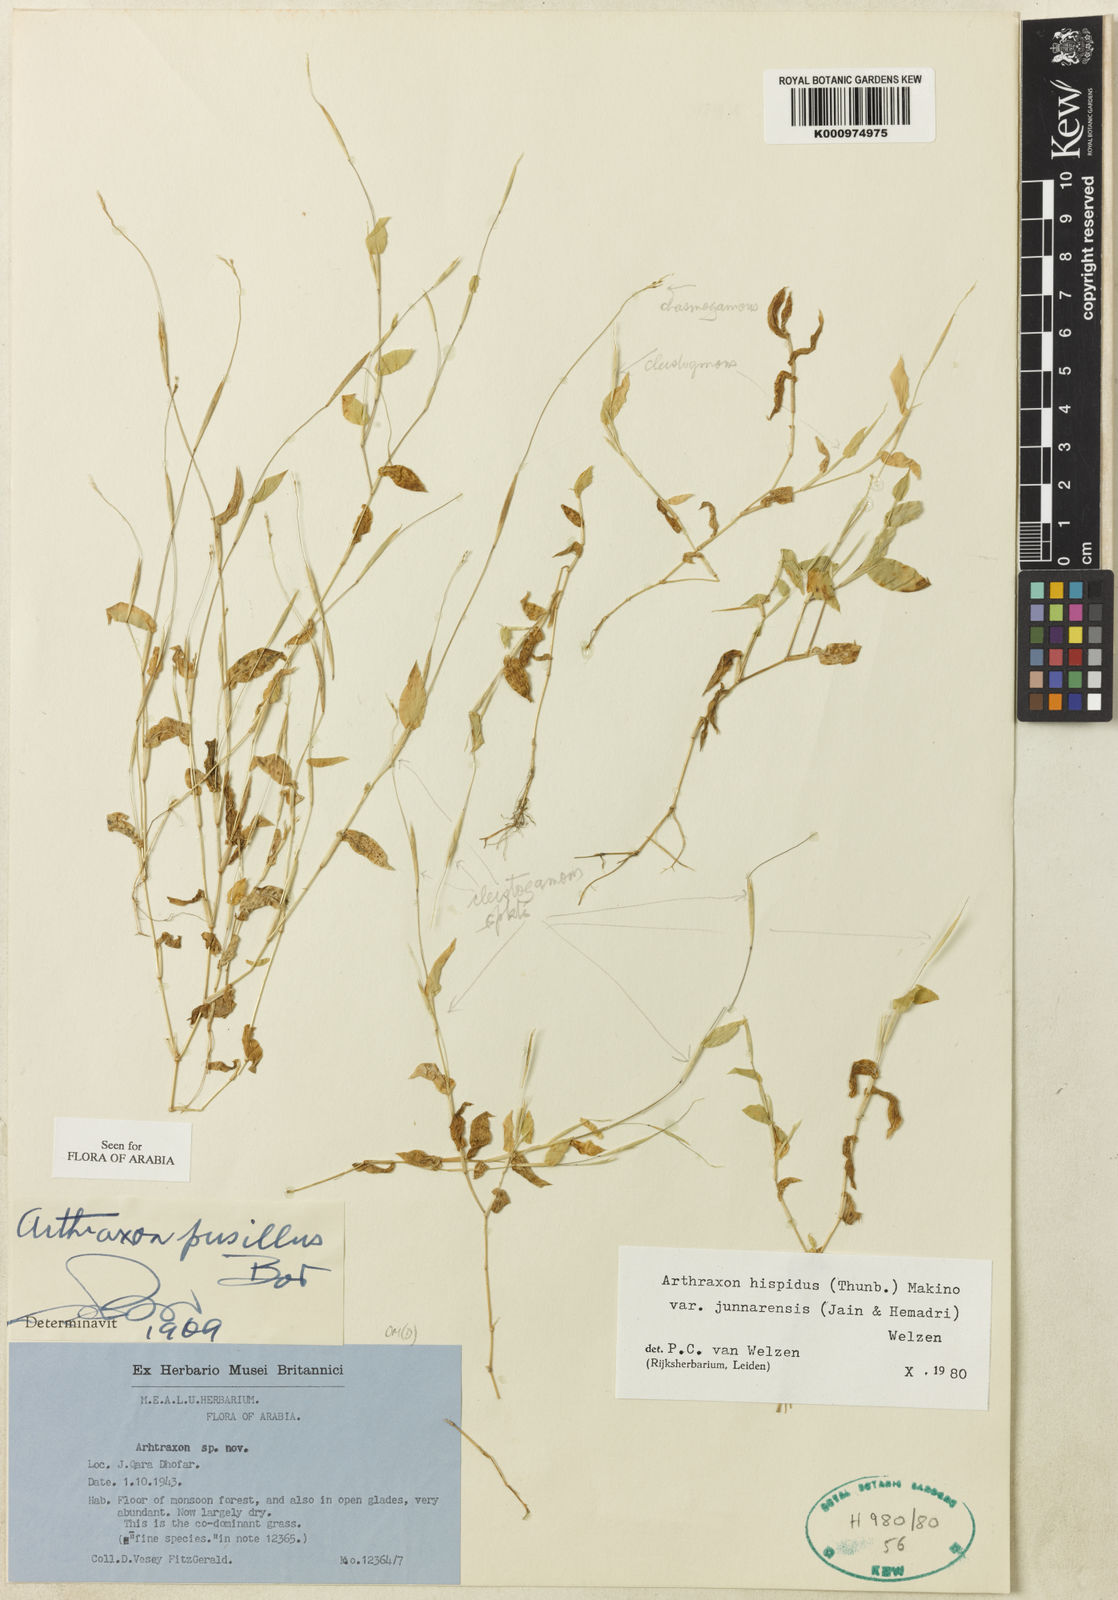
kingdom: Plantae
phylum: Tracheophyta
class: Liliopsida
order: Poales
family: Poaceae
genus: Arthraxon
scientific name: Arthraxon junnarensis
